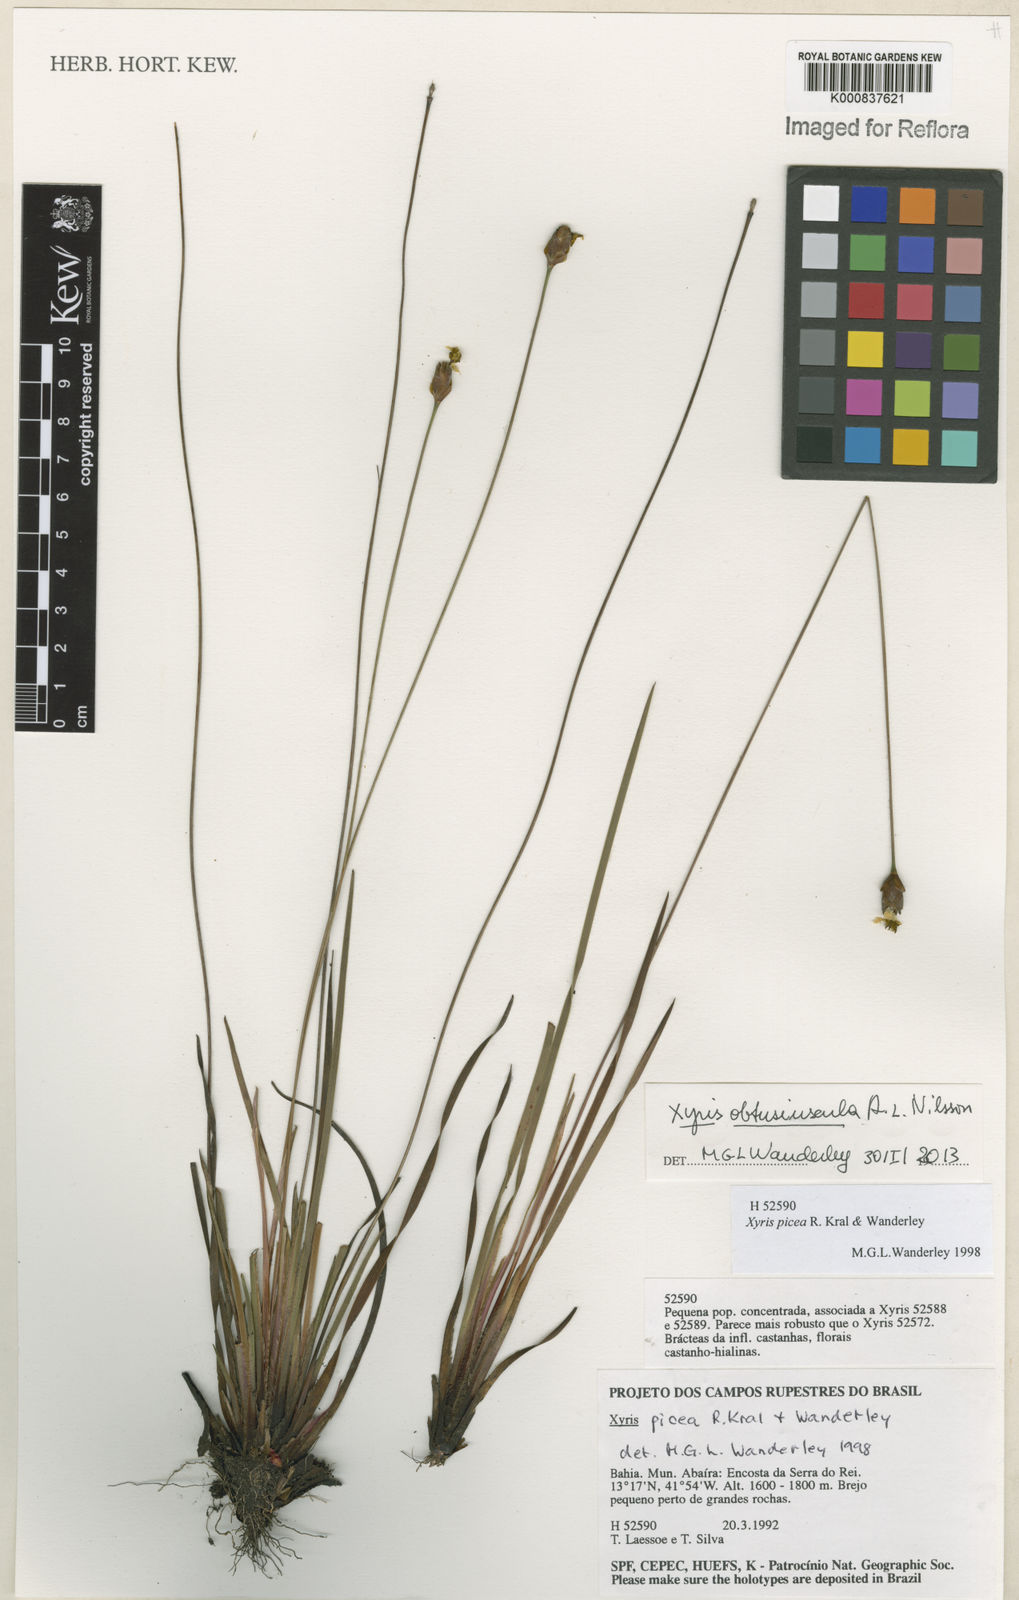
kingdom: Plantae
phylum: Tracheophyta
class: Liliopsida
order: Poales
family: Xyridaceae
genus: Xyris
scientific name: Xyris obtusiuscula
